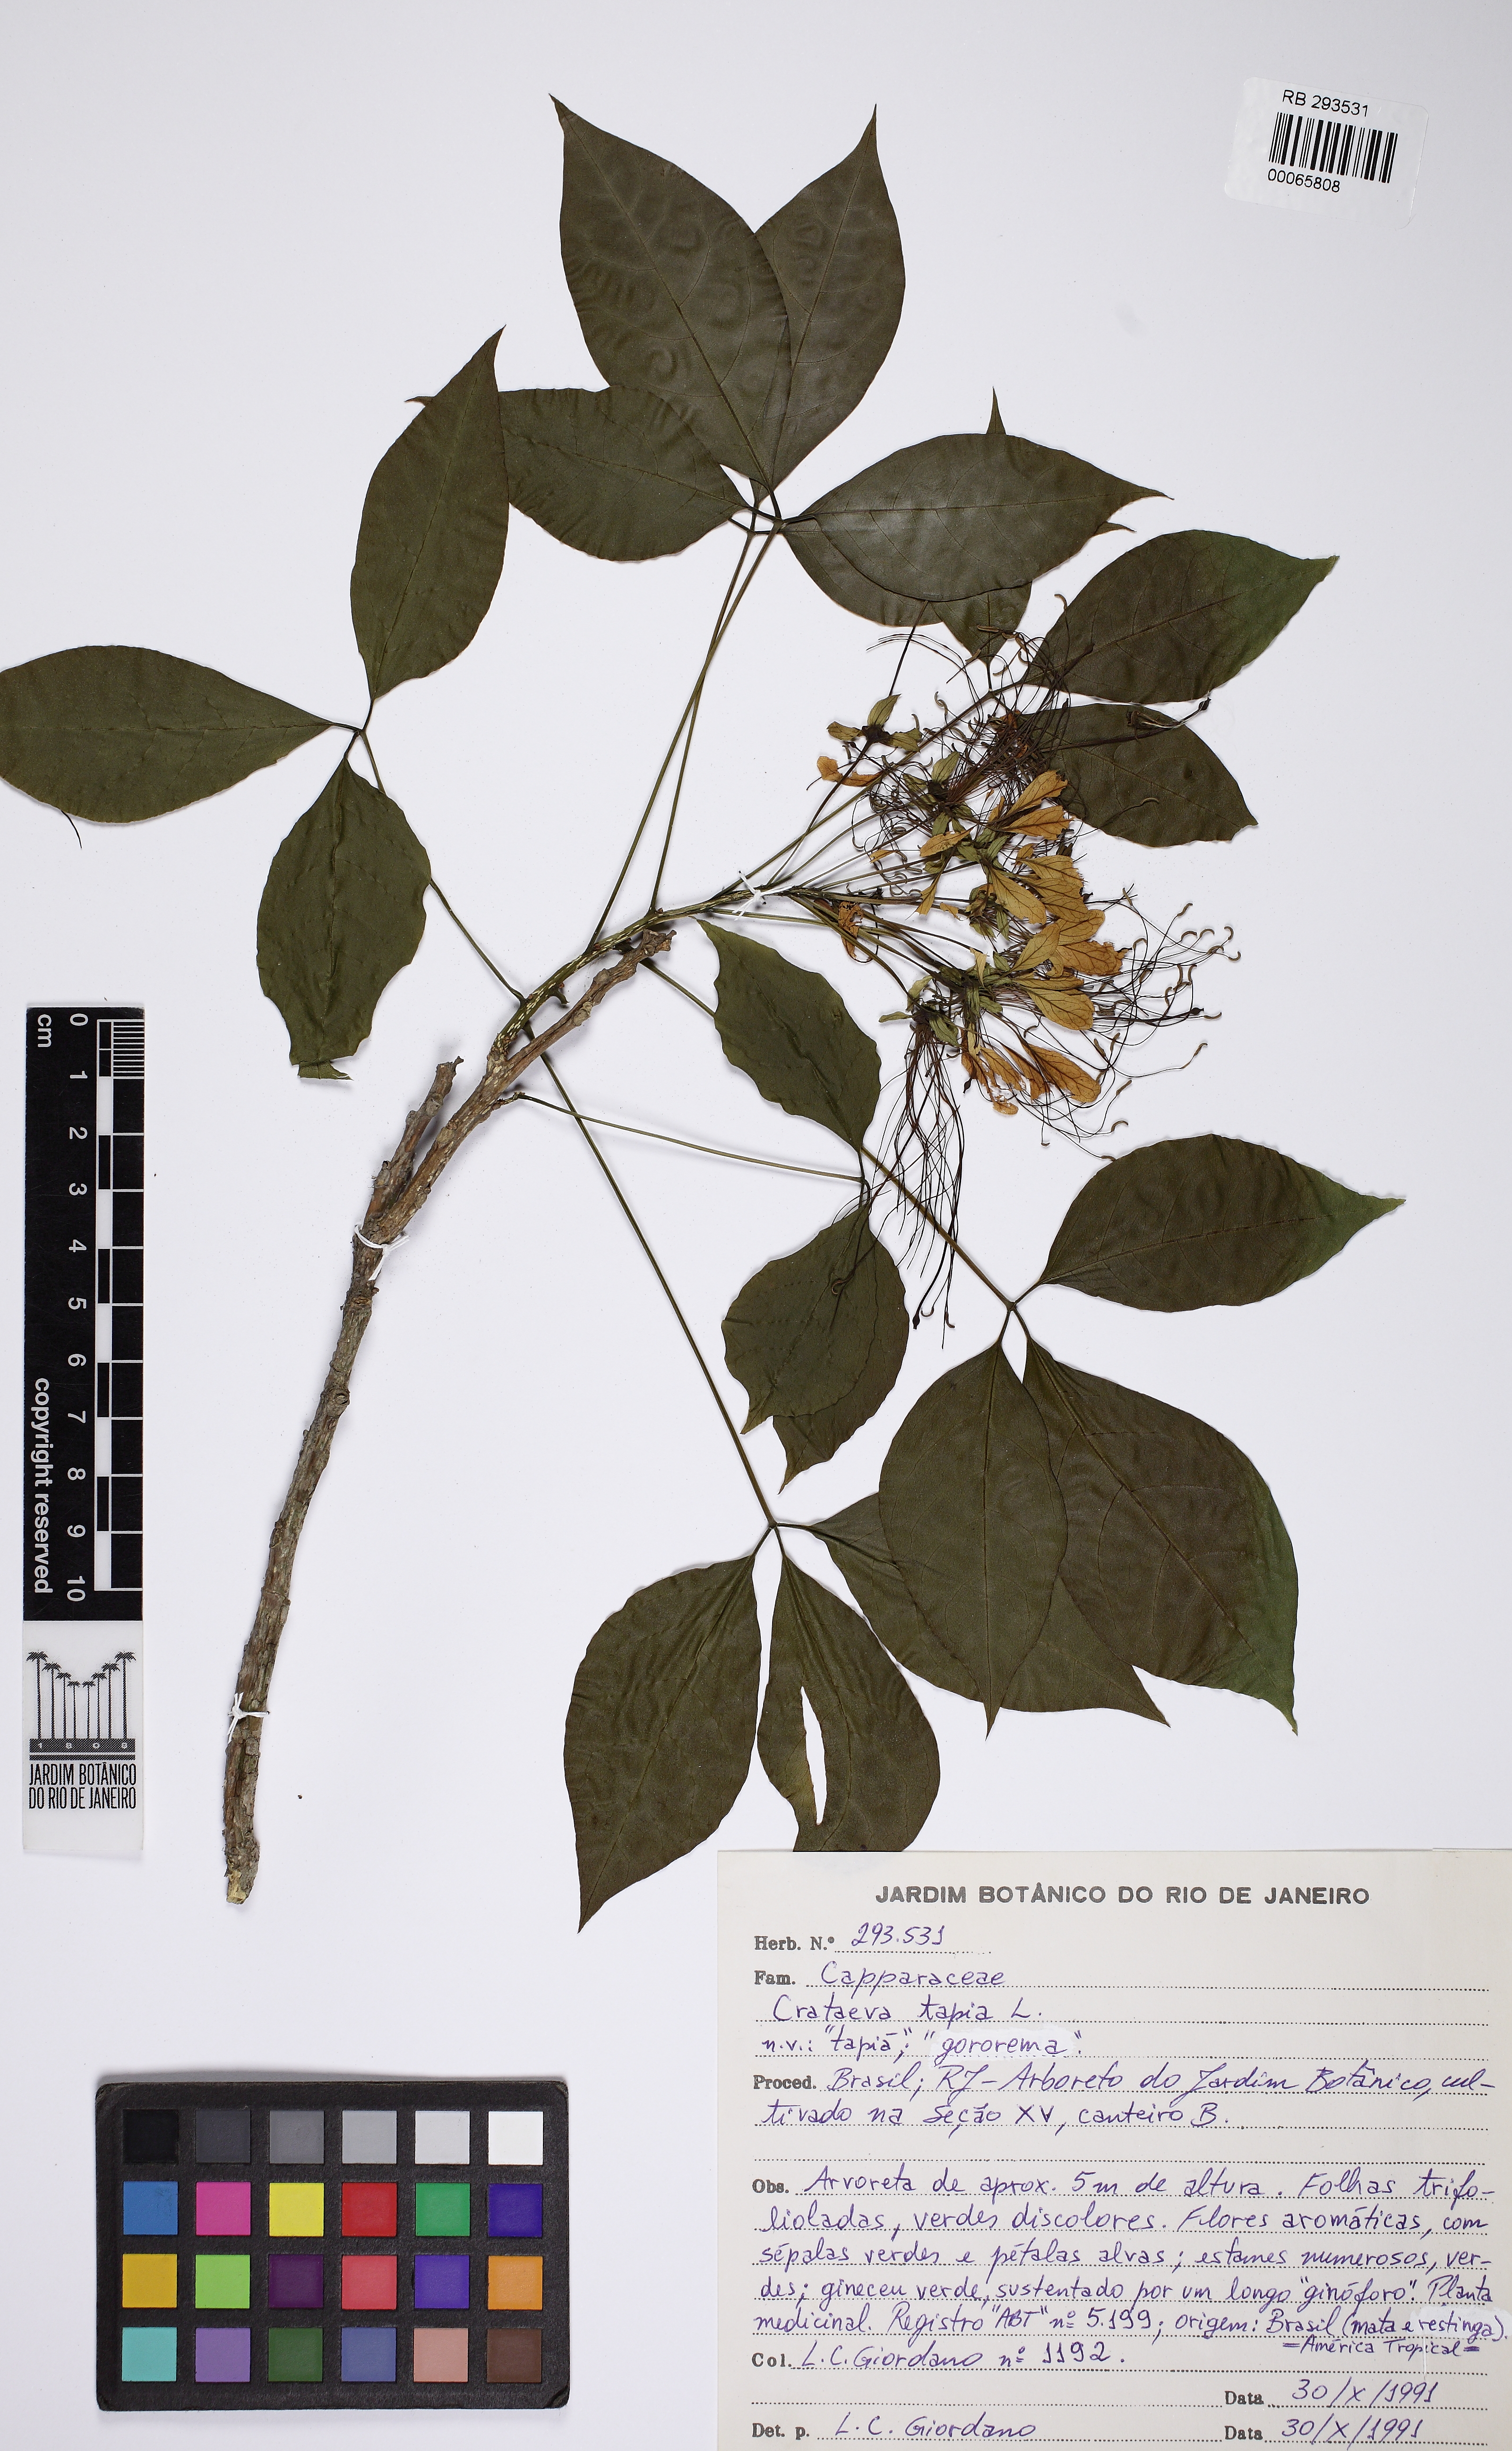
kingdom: Plantae
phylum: Tracheophyta
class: Magnoliopsida
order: Brassicales
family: Capparaceae
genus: Crateva
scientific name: Crateva tapia
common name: Garlic-pear
